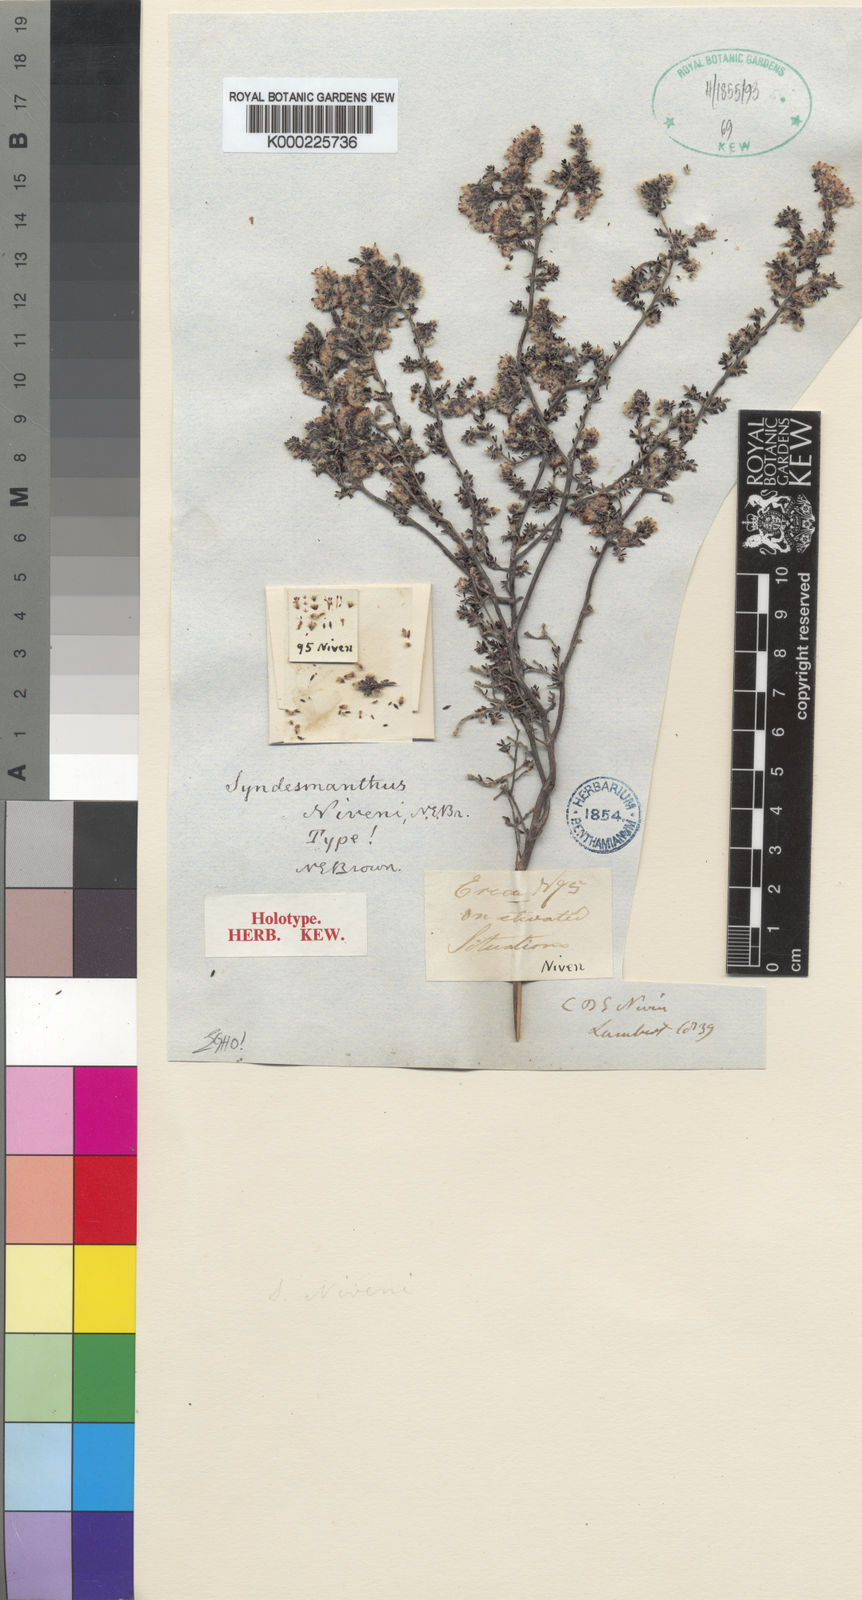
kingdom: Plantae
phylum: Tracheophyta
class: Magnoliopsida
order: Ericales
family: Ericaceae
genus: Erica
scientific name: Erica niveniana
